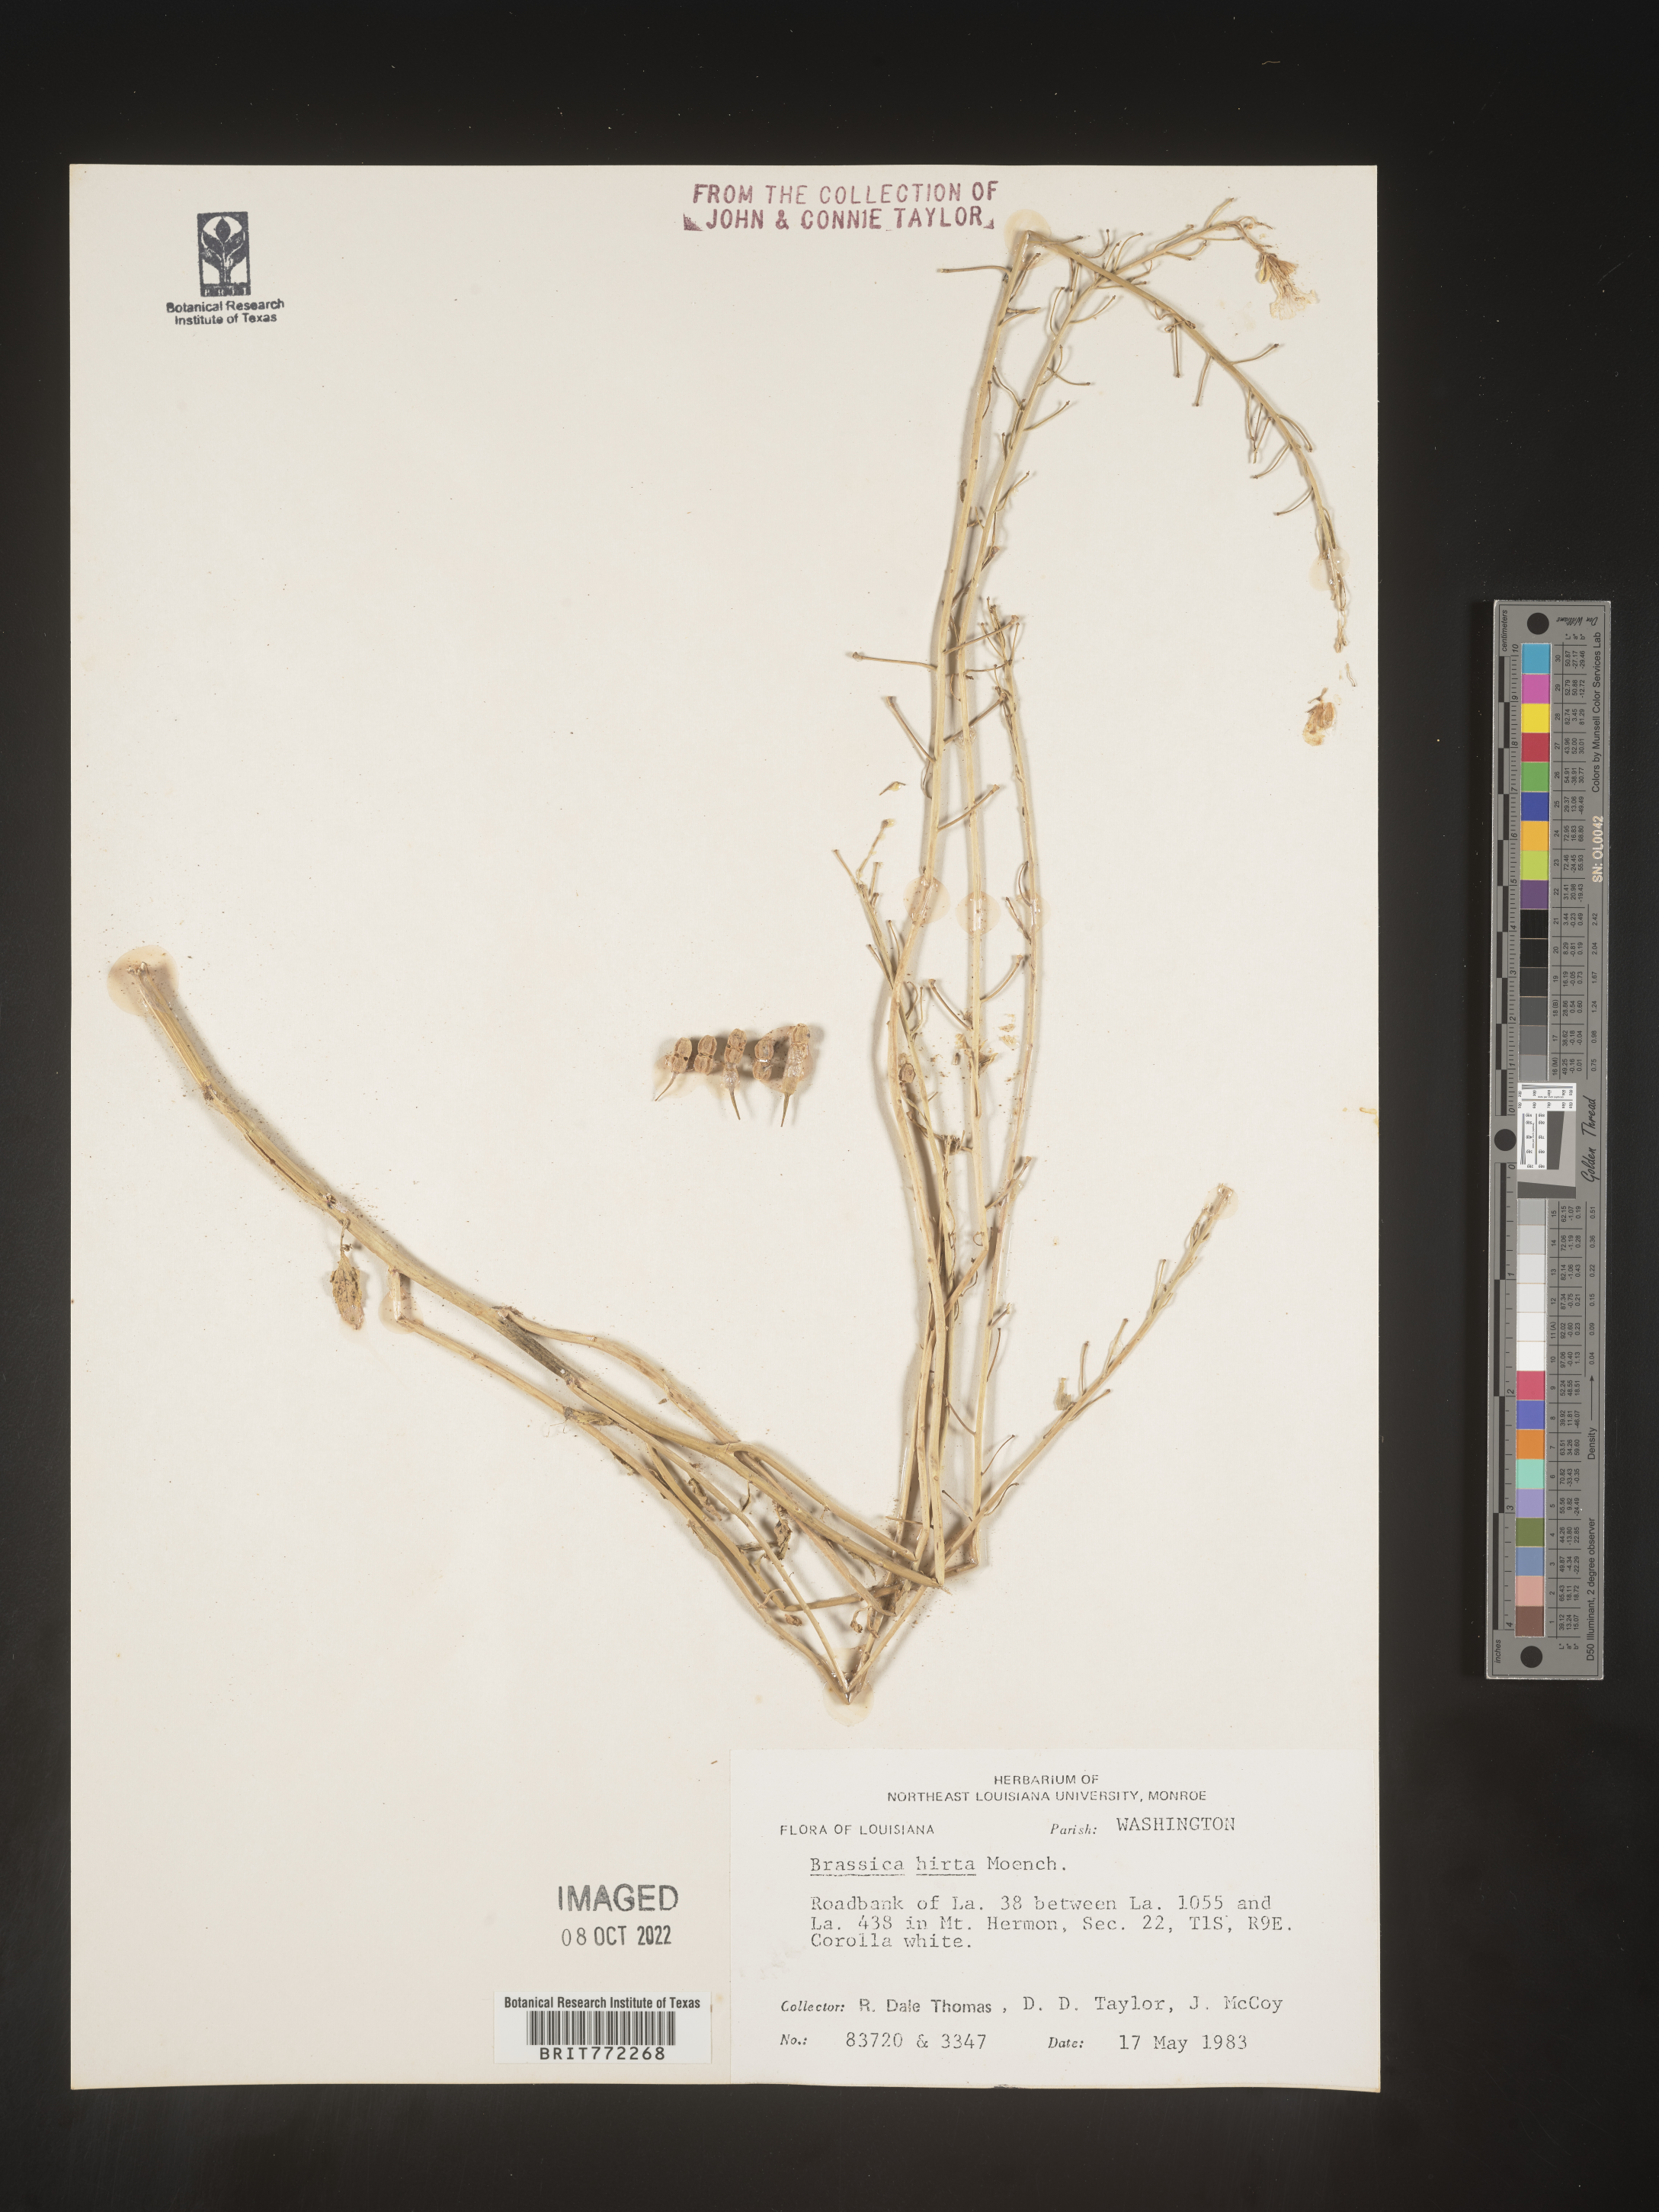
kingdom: Plantae
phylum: Tracheophyta
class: Magnoliopsida
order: Brassicales
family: Brassicaceae
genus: Hirschfeldia
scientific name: Hirschfeldia incana
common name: Hoary mustard
